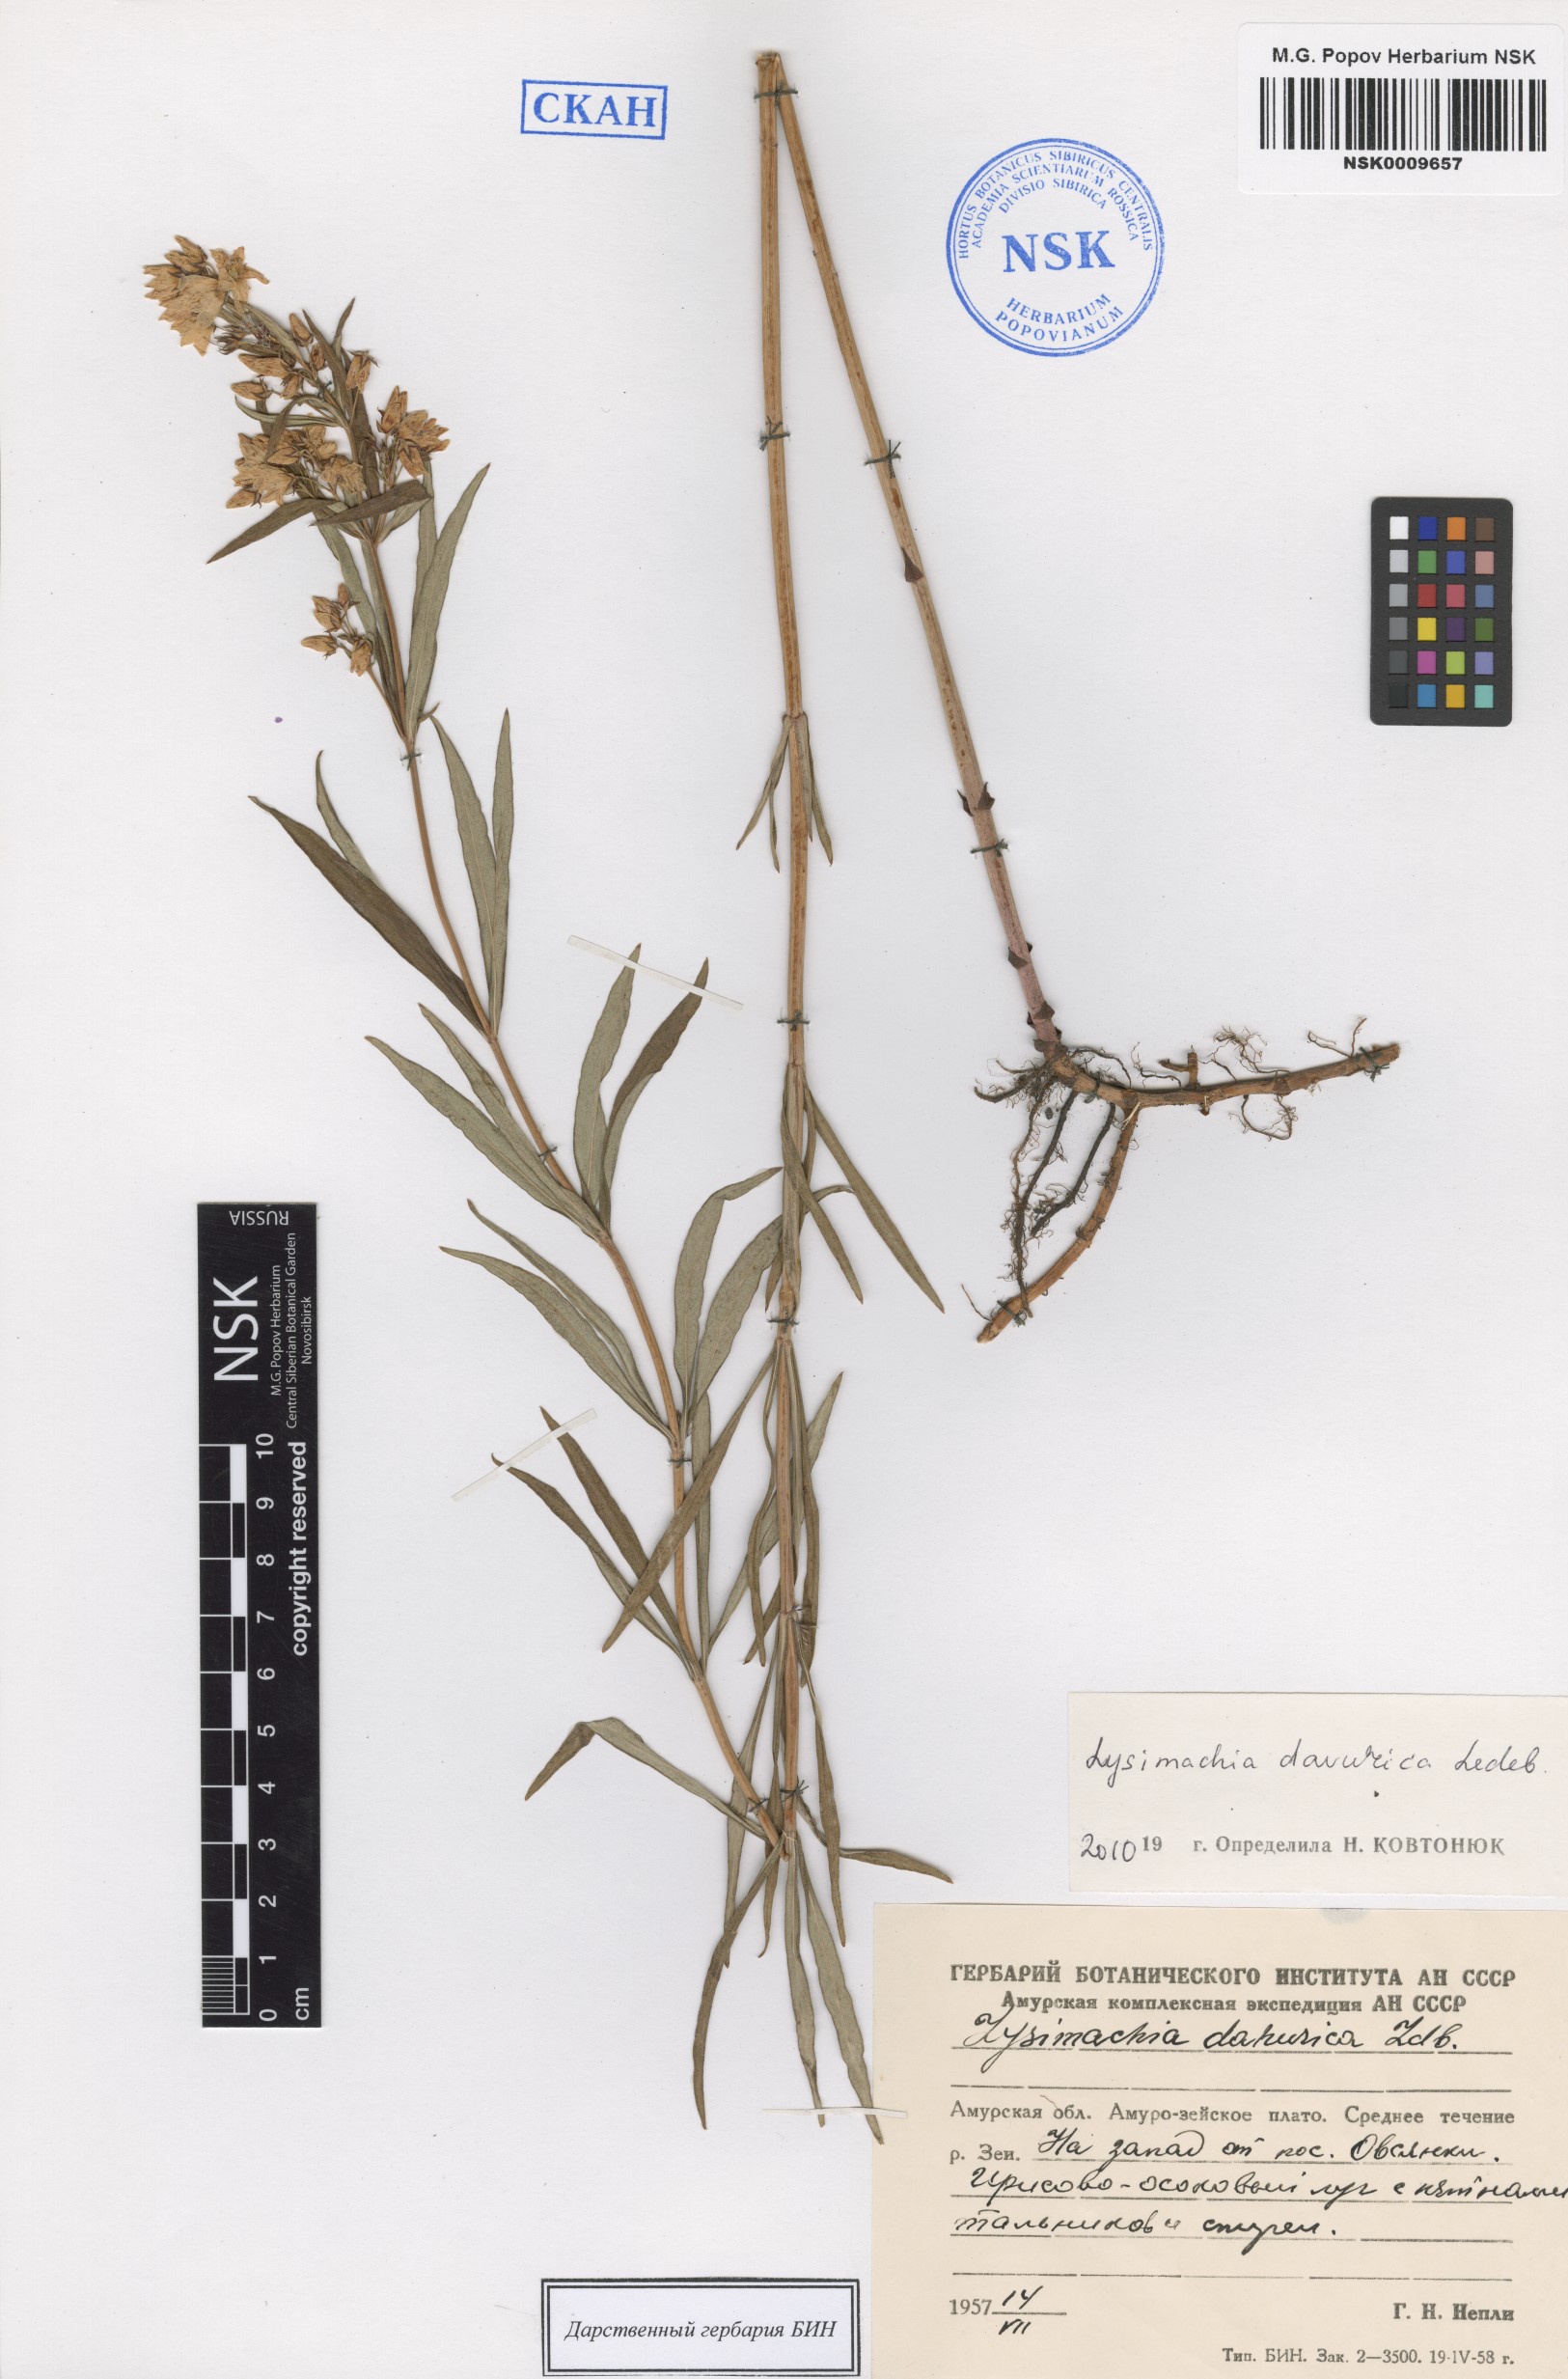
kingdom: Plantae
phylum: Tracheophyta
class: Magnoliopsida
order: Ericales
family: Primulaceae
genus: Lysimachia
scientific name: Lysimachia davurica
